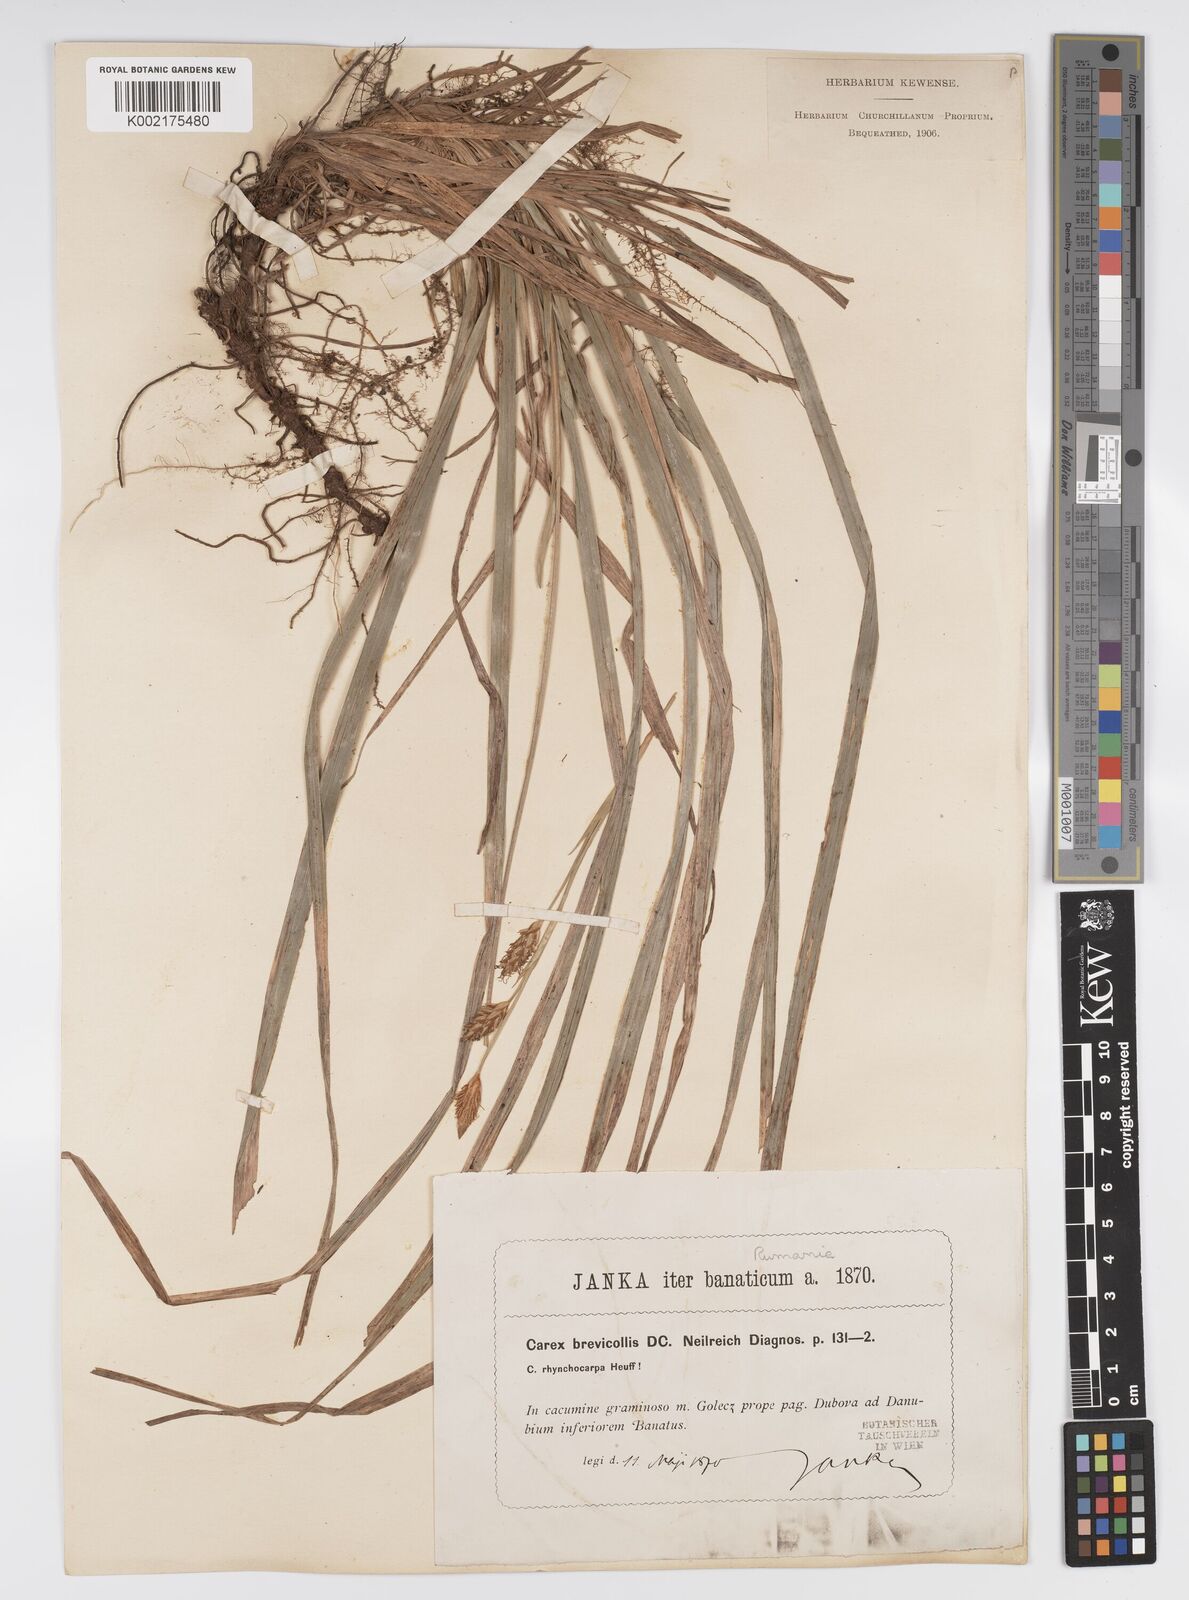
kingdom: Plantae
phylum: Tracheophyta
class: Liliopsida
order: Poales
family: Cyperaceae
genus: Carex
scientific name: Carex brevicollis
